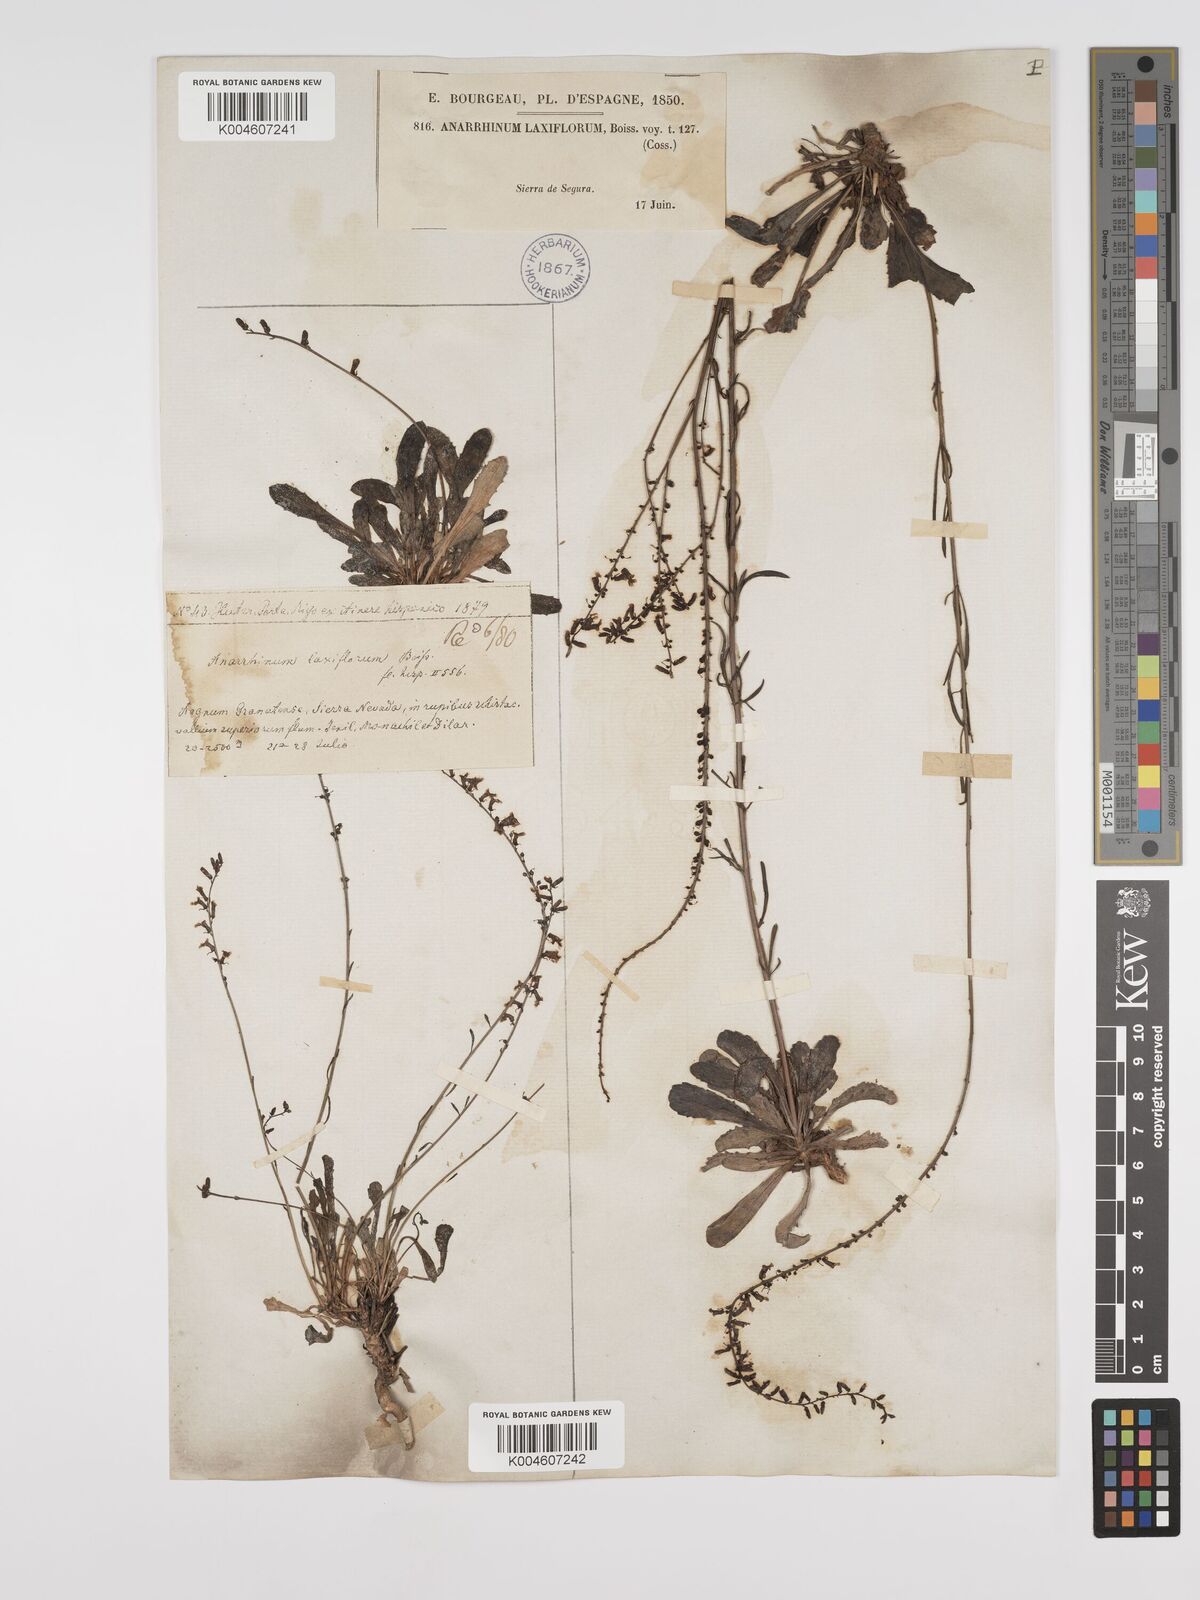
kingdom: Plantae
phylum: Tracheophyta
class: Magnoliopsida
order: Lamiales
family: Plantaginaceae
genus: Anarrhinum
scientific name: Anarrhinum laxiflorum
